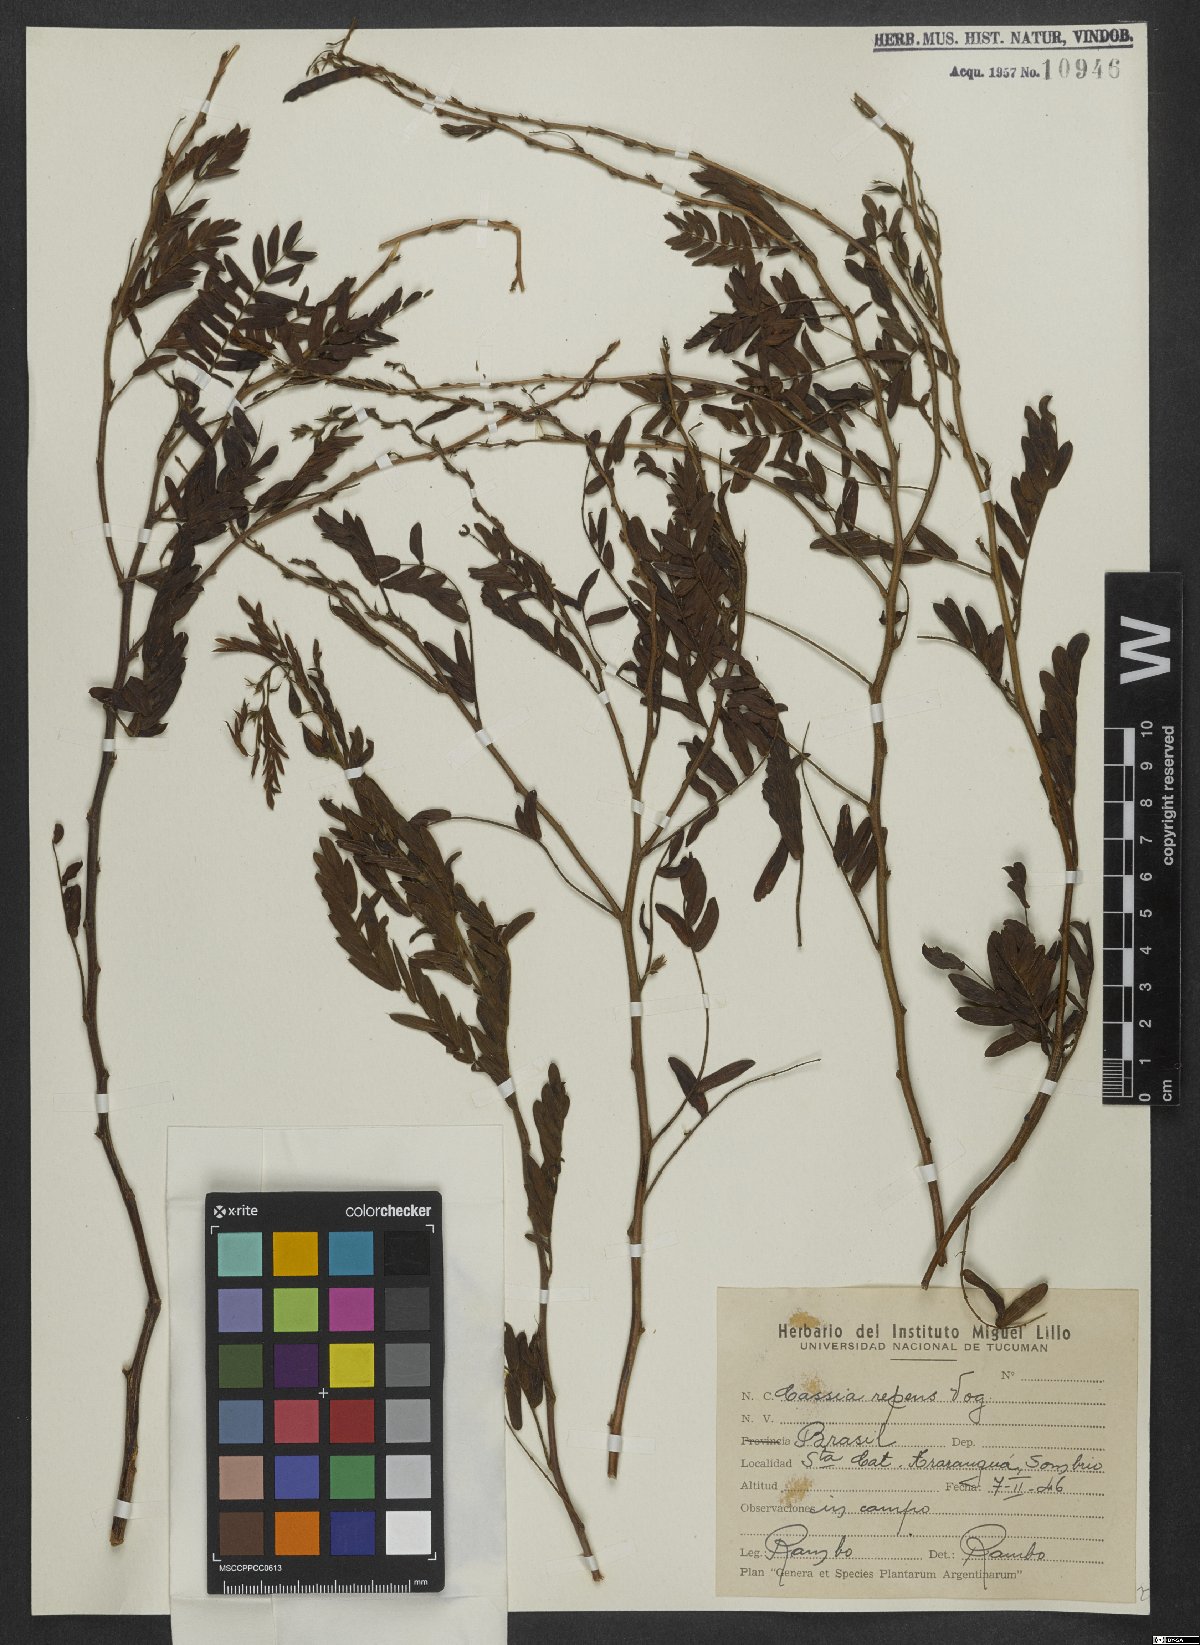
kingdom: Plantae
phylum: Tracheophyta
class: Magnoliopsida
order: Fabales
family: Fabaceae
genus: Chamaecrista
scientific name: Chamaecrista repens
